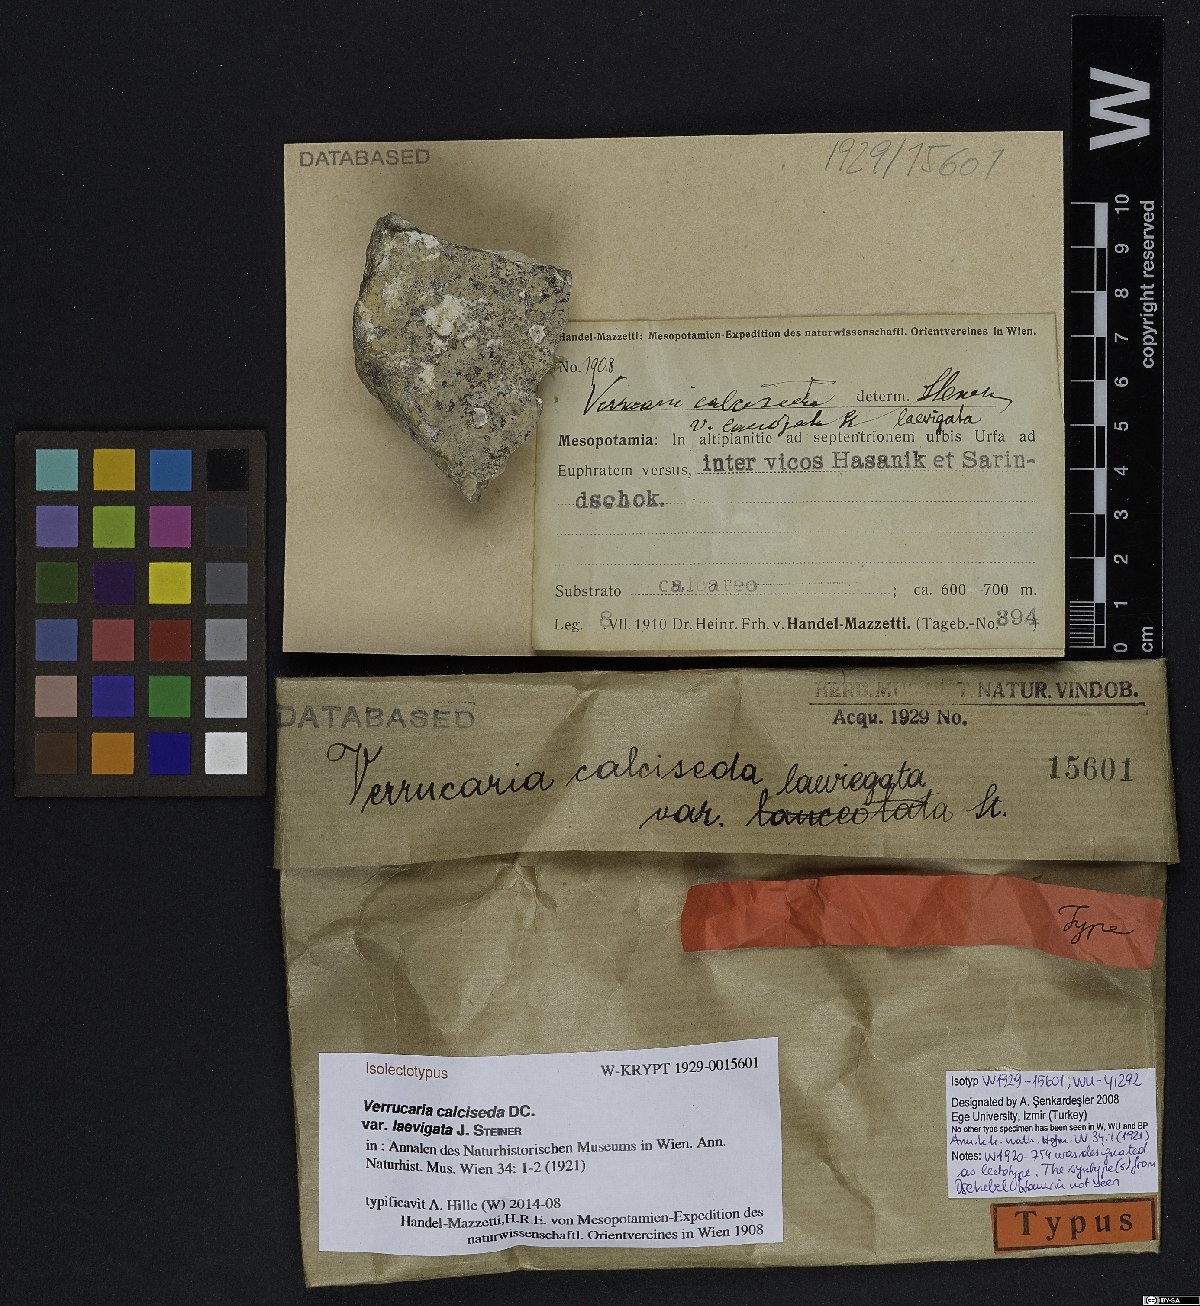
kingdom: Fungi
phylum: Ascomycota
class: Eurotiomycetes
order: Verrucariales
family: Verrucariaceae
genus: Bagliettoa
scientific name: Bagliettoa calciseda
